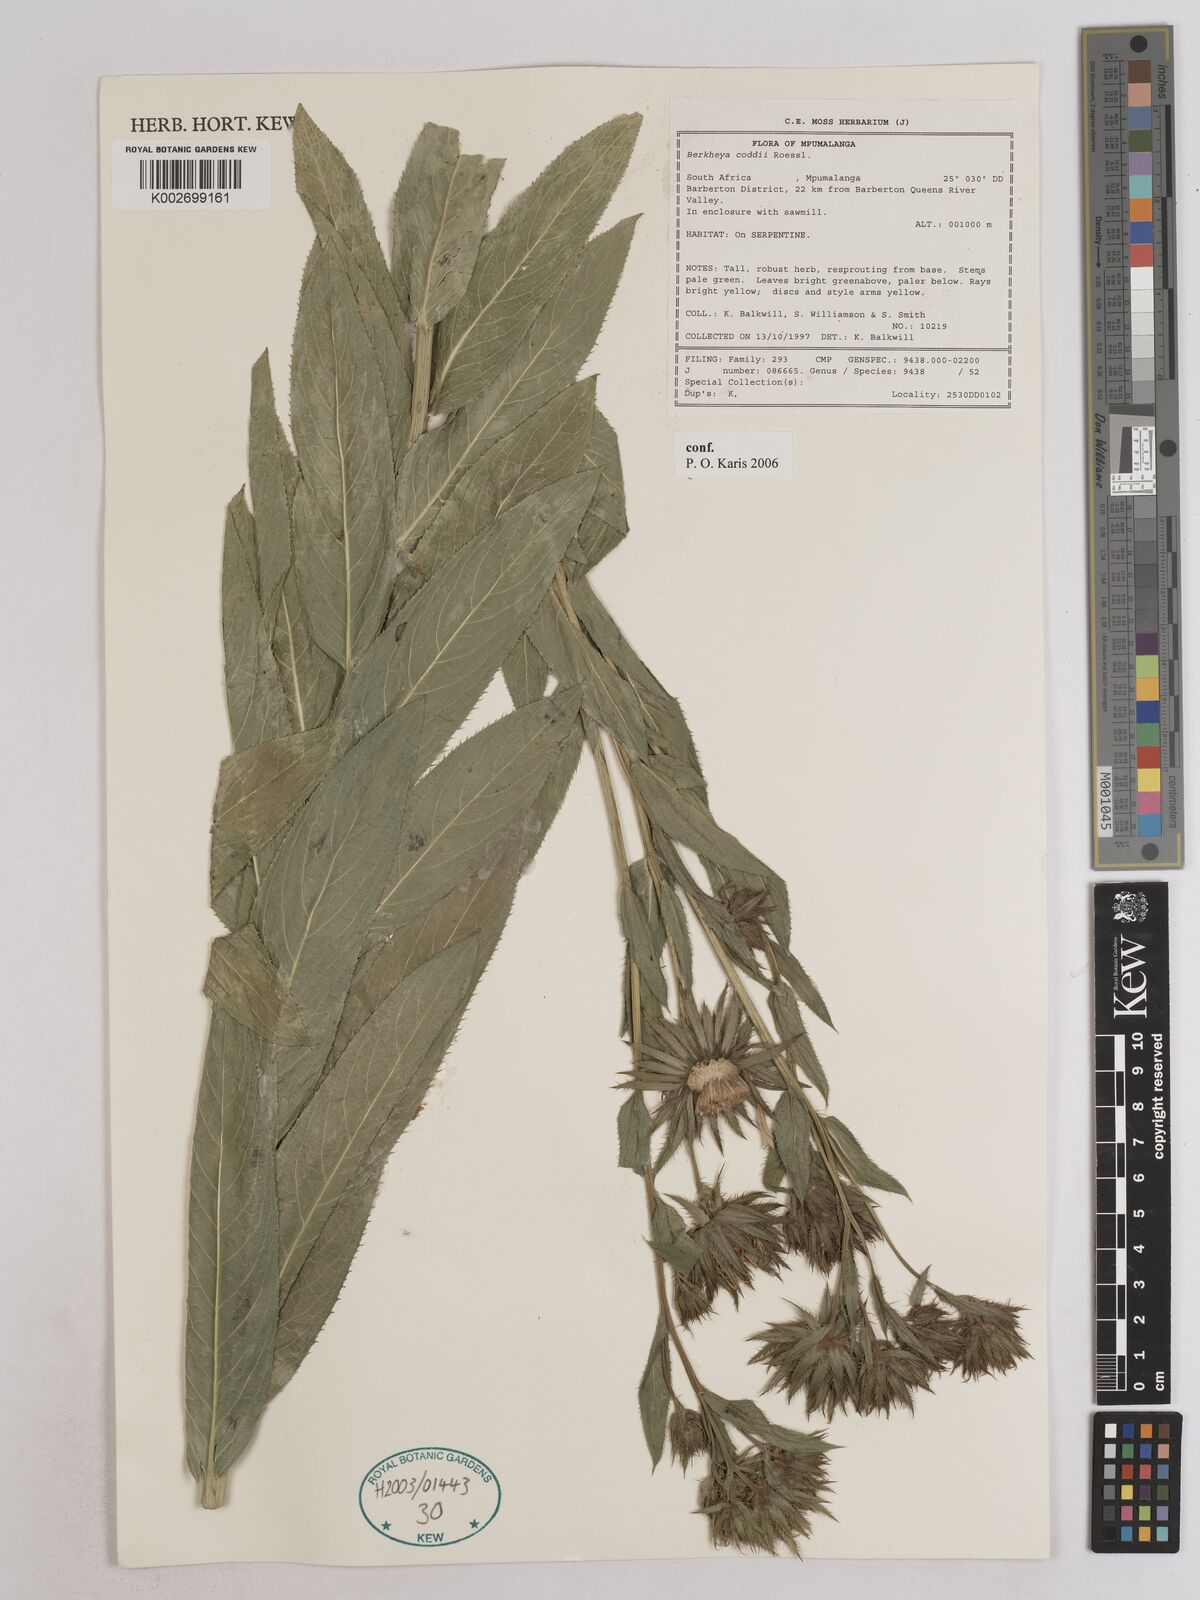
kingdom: Plantae
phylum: Tracheophyta
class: Magnoliopsida
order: Asterales
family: Asteraceae
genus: Berkheya
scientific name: Berkheya coddii
